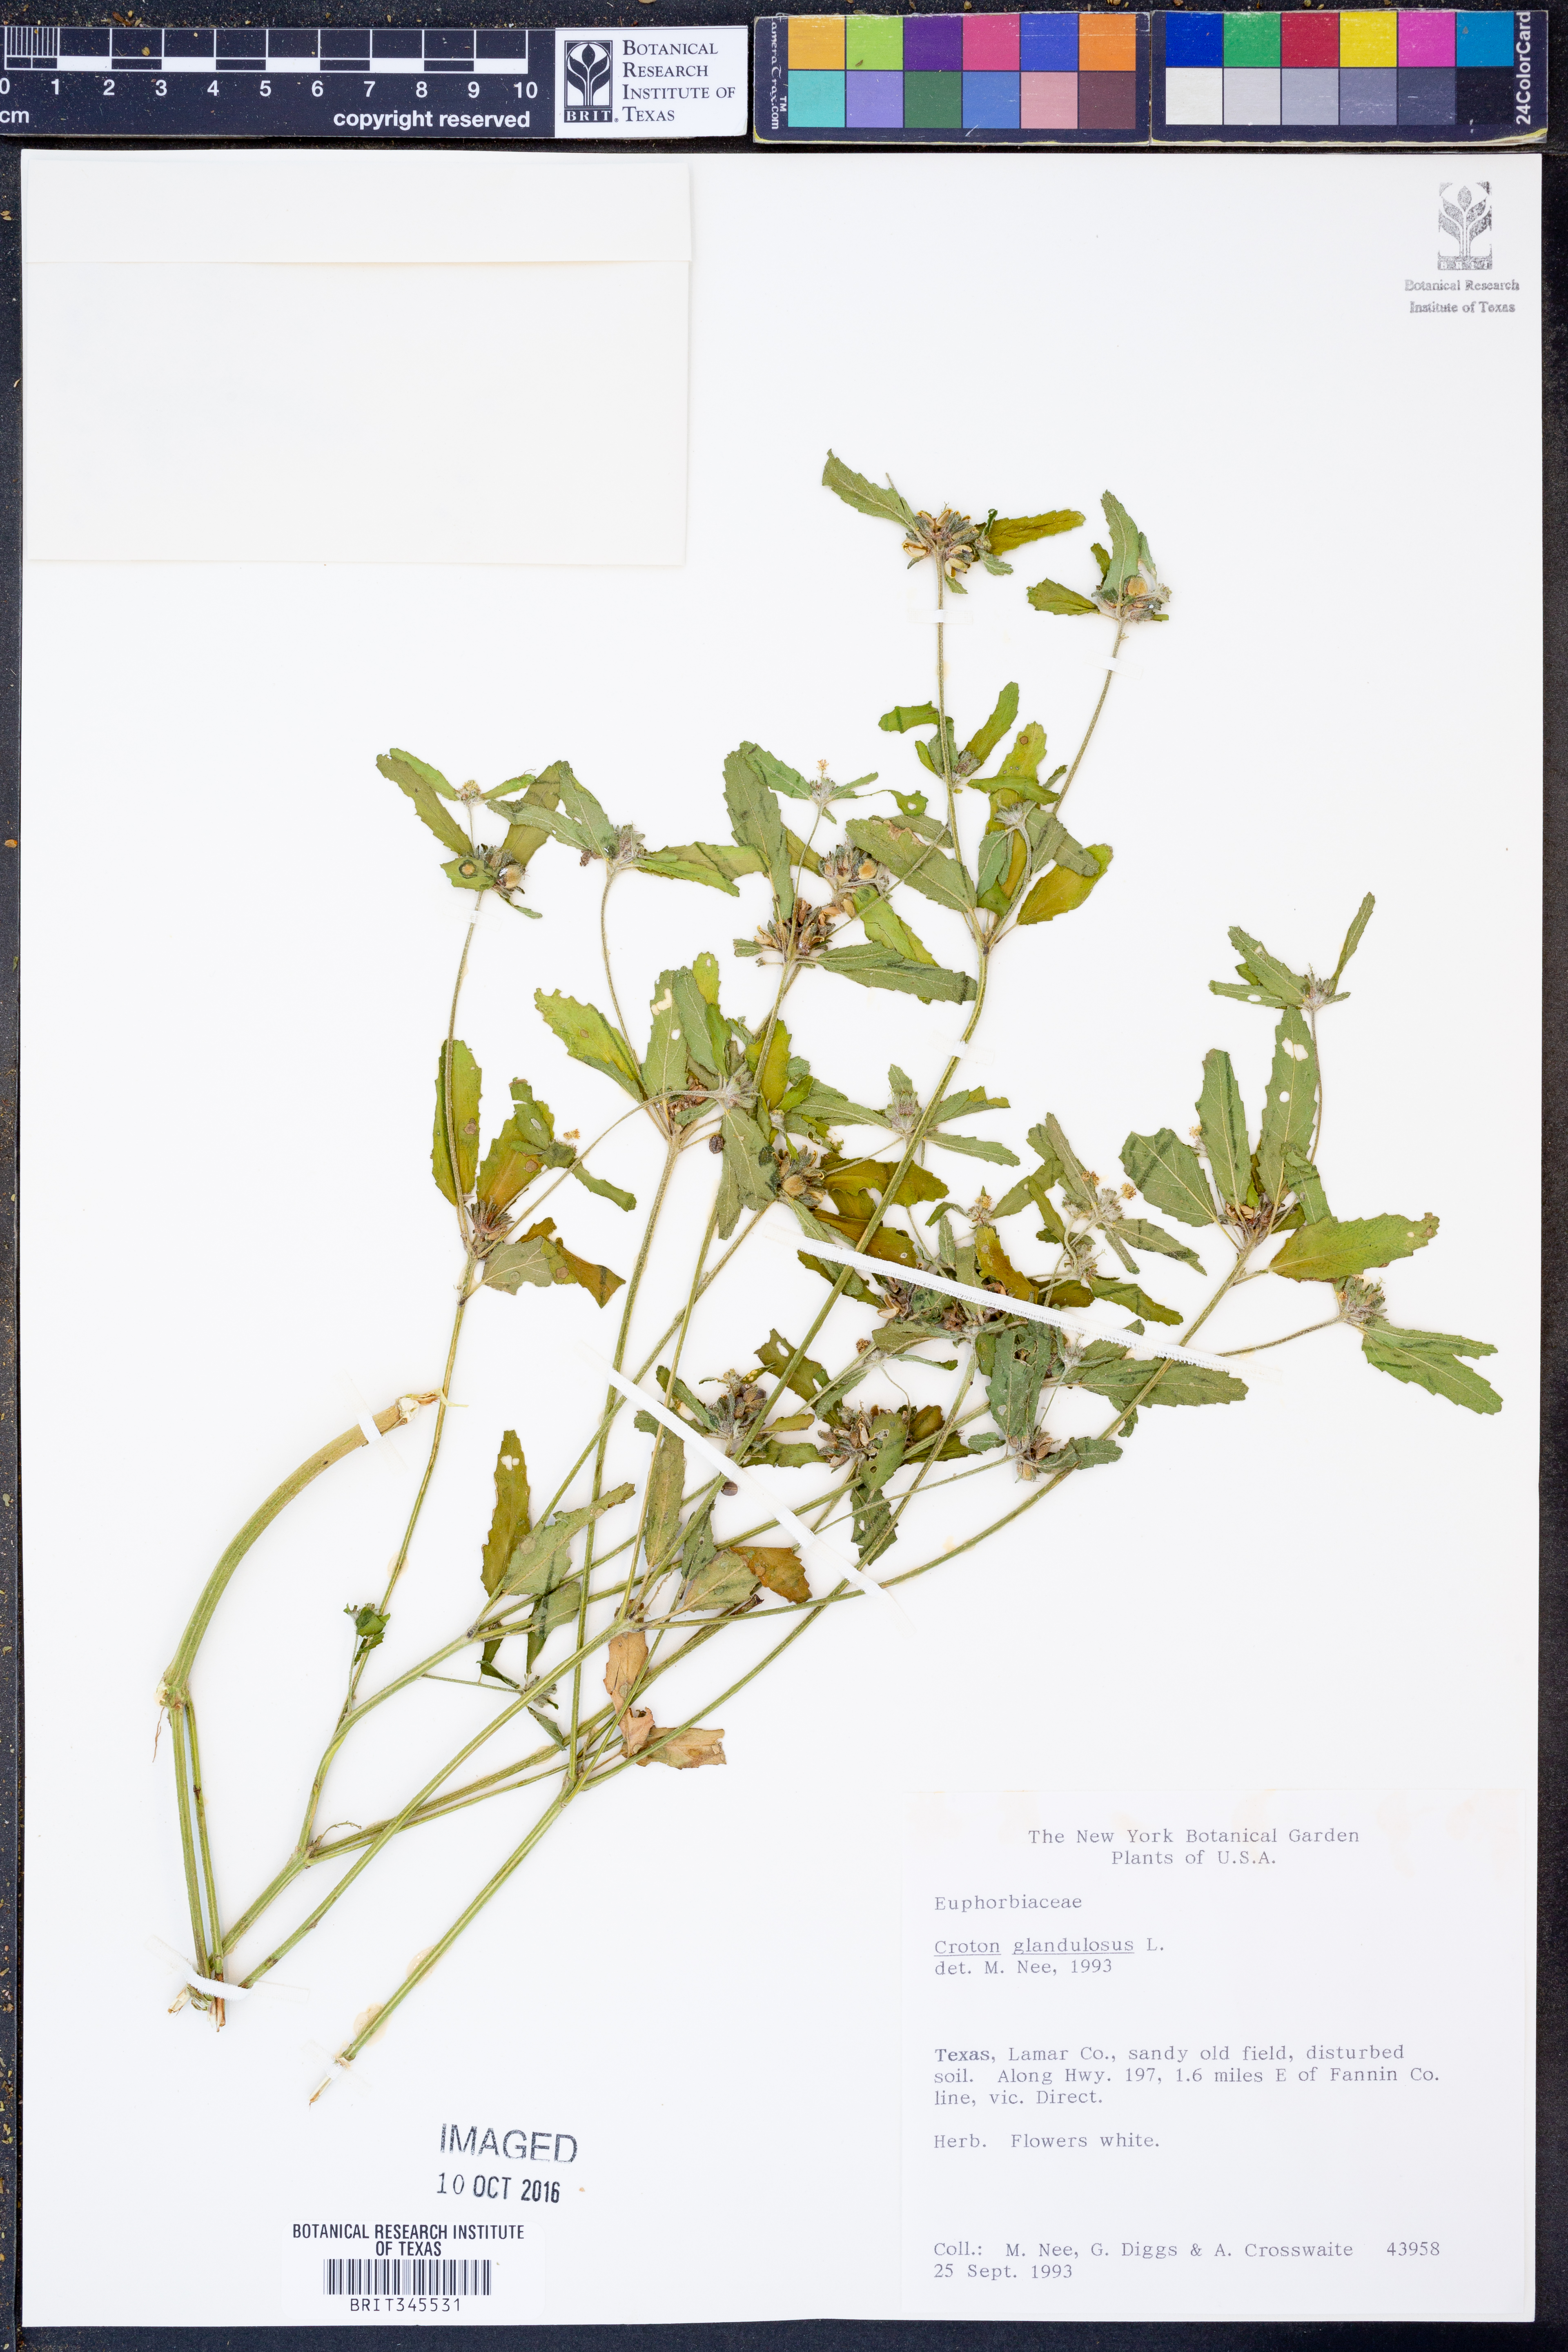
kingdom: Plantae
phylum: Tracheophyta
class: Magnoliopsida
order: Malpighiales
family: Euphorbiaceae
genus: Croton
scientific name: Croton glandulosus
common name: Tropic croton
